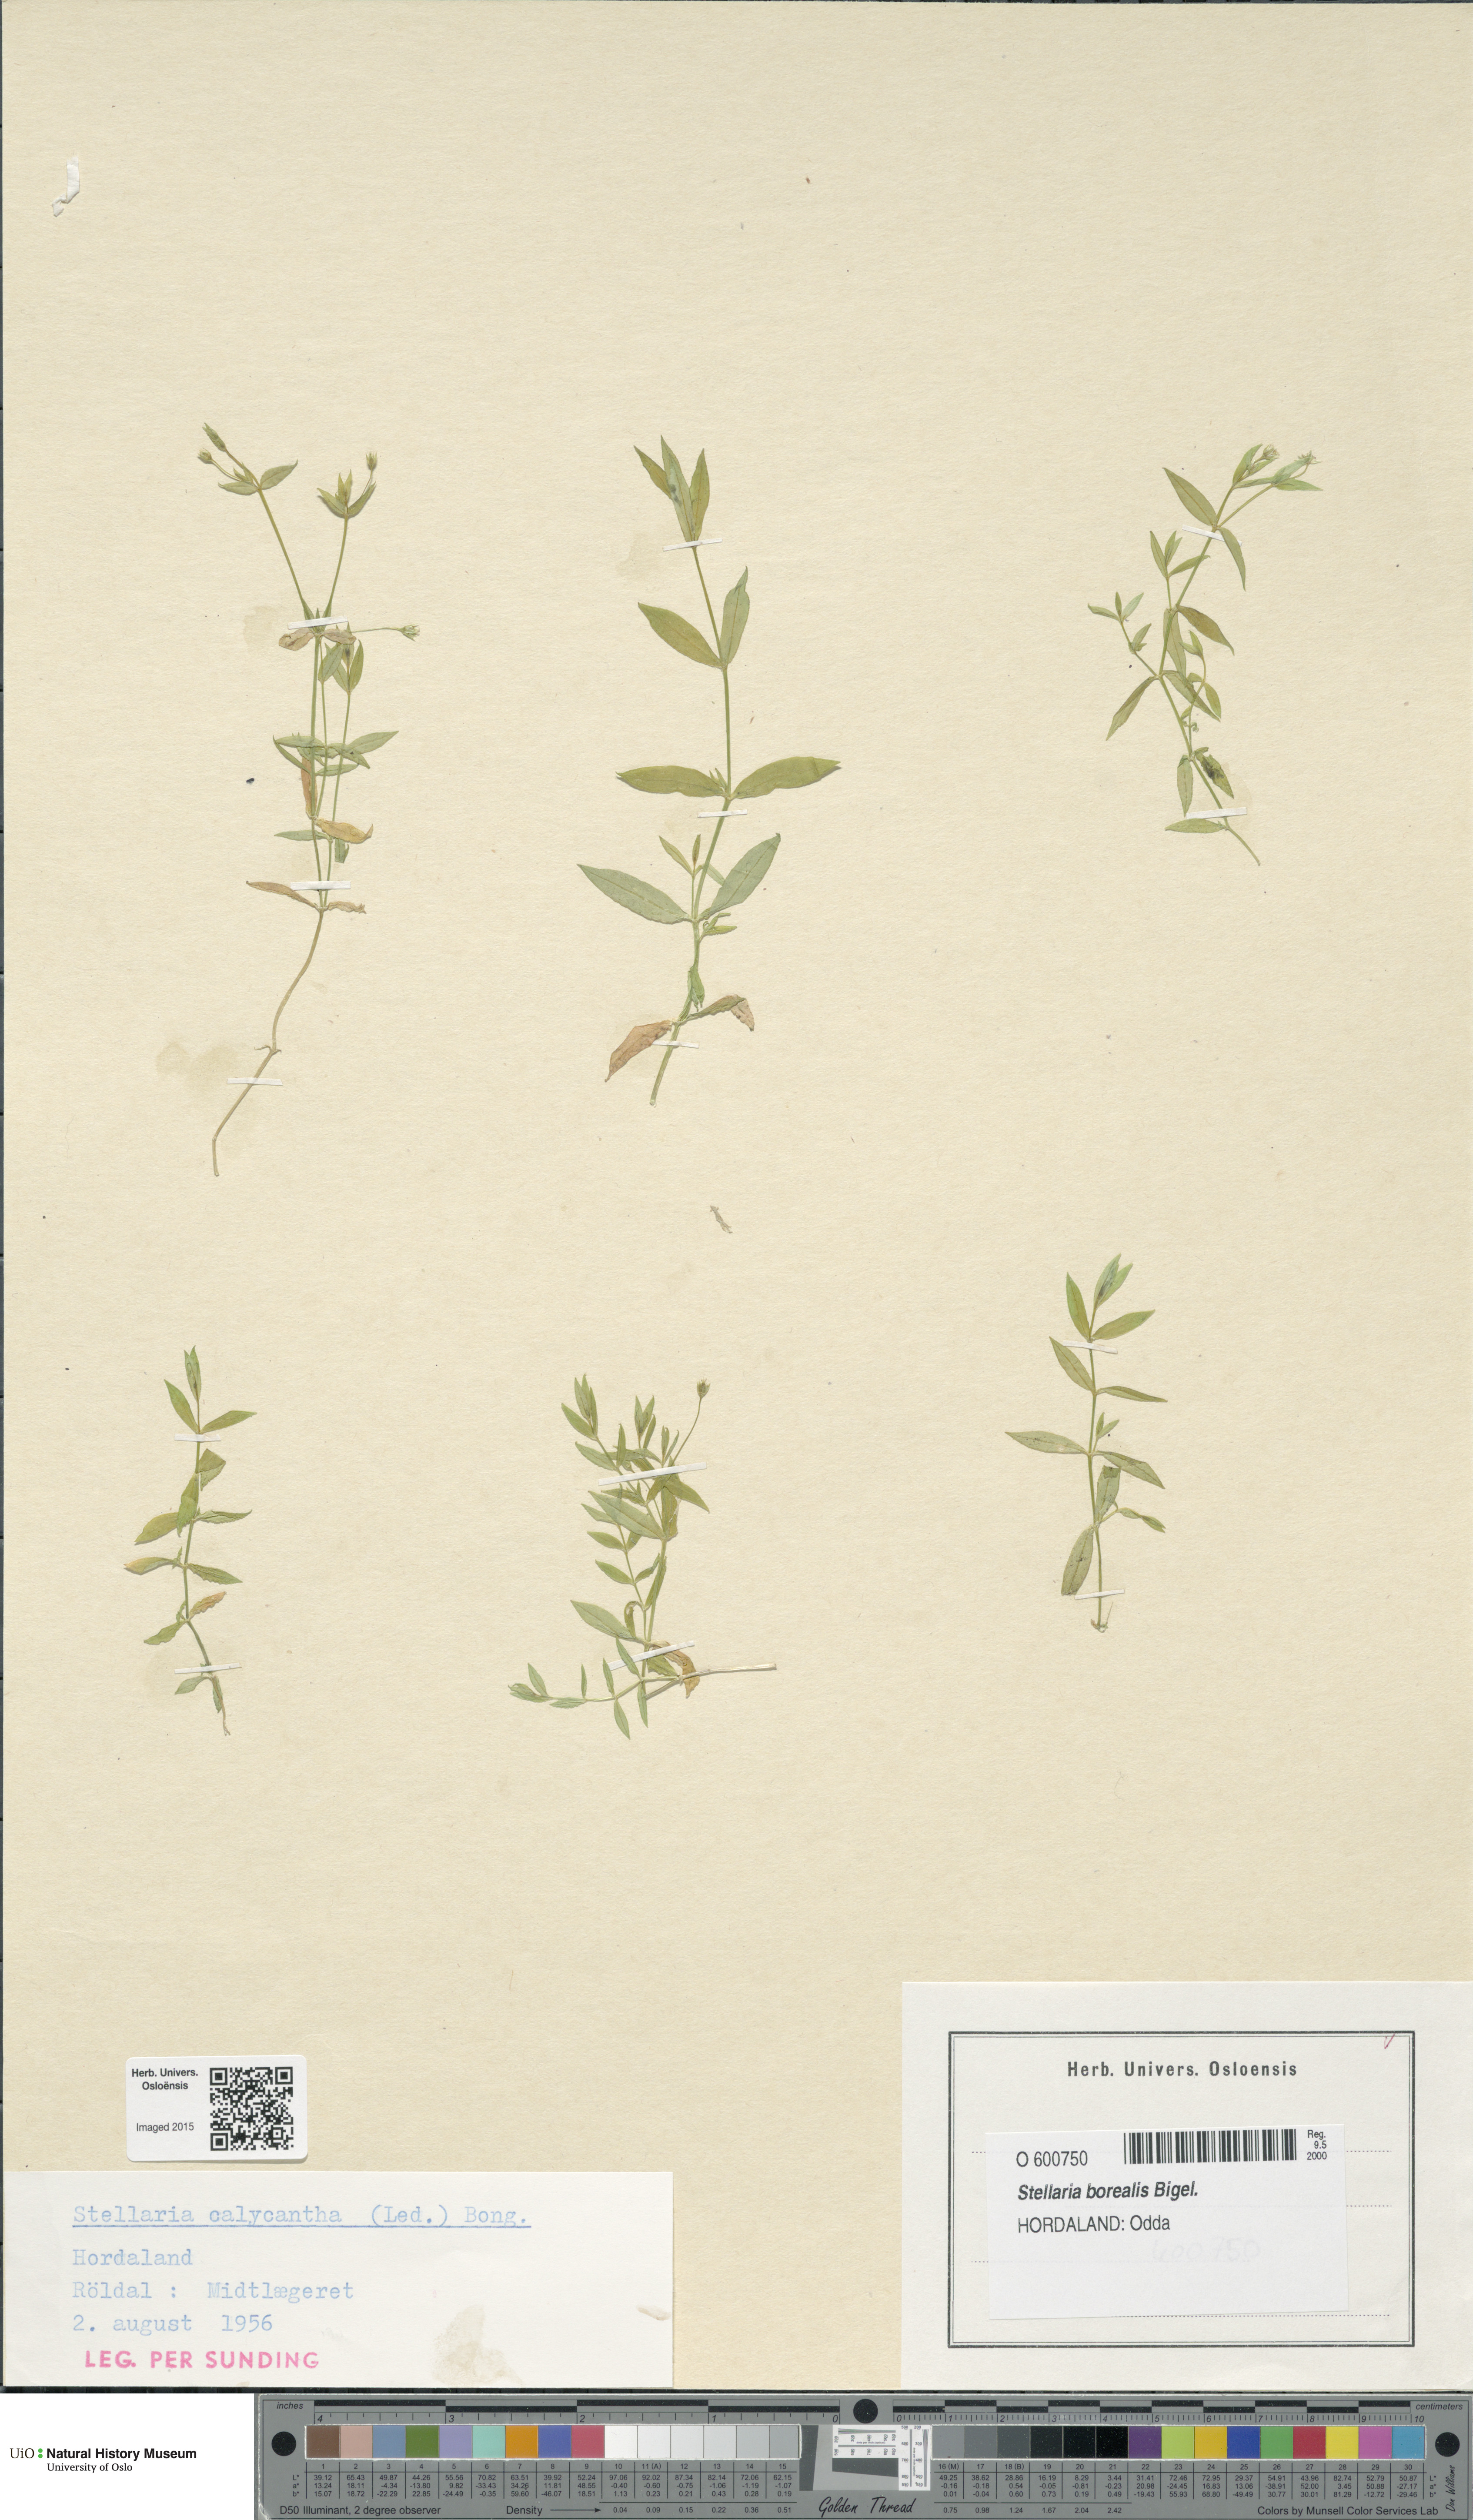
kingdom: Plantae
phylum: Tracheophyta
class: Magnoliopsida
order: Caryophyllales
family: Caryophyllaceae
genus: Stellaria
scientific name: Stellaria borealis
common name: Boreal starwort
